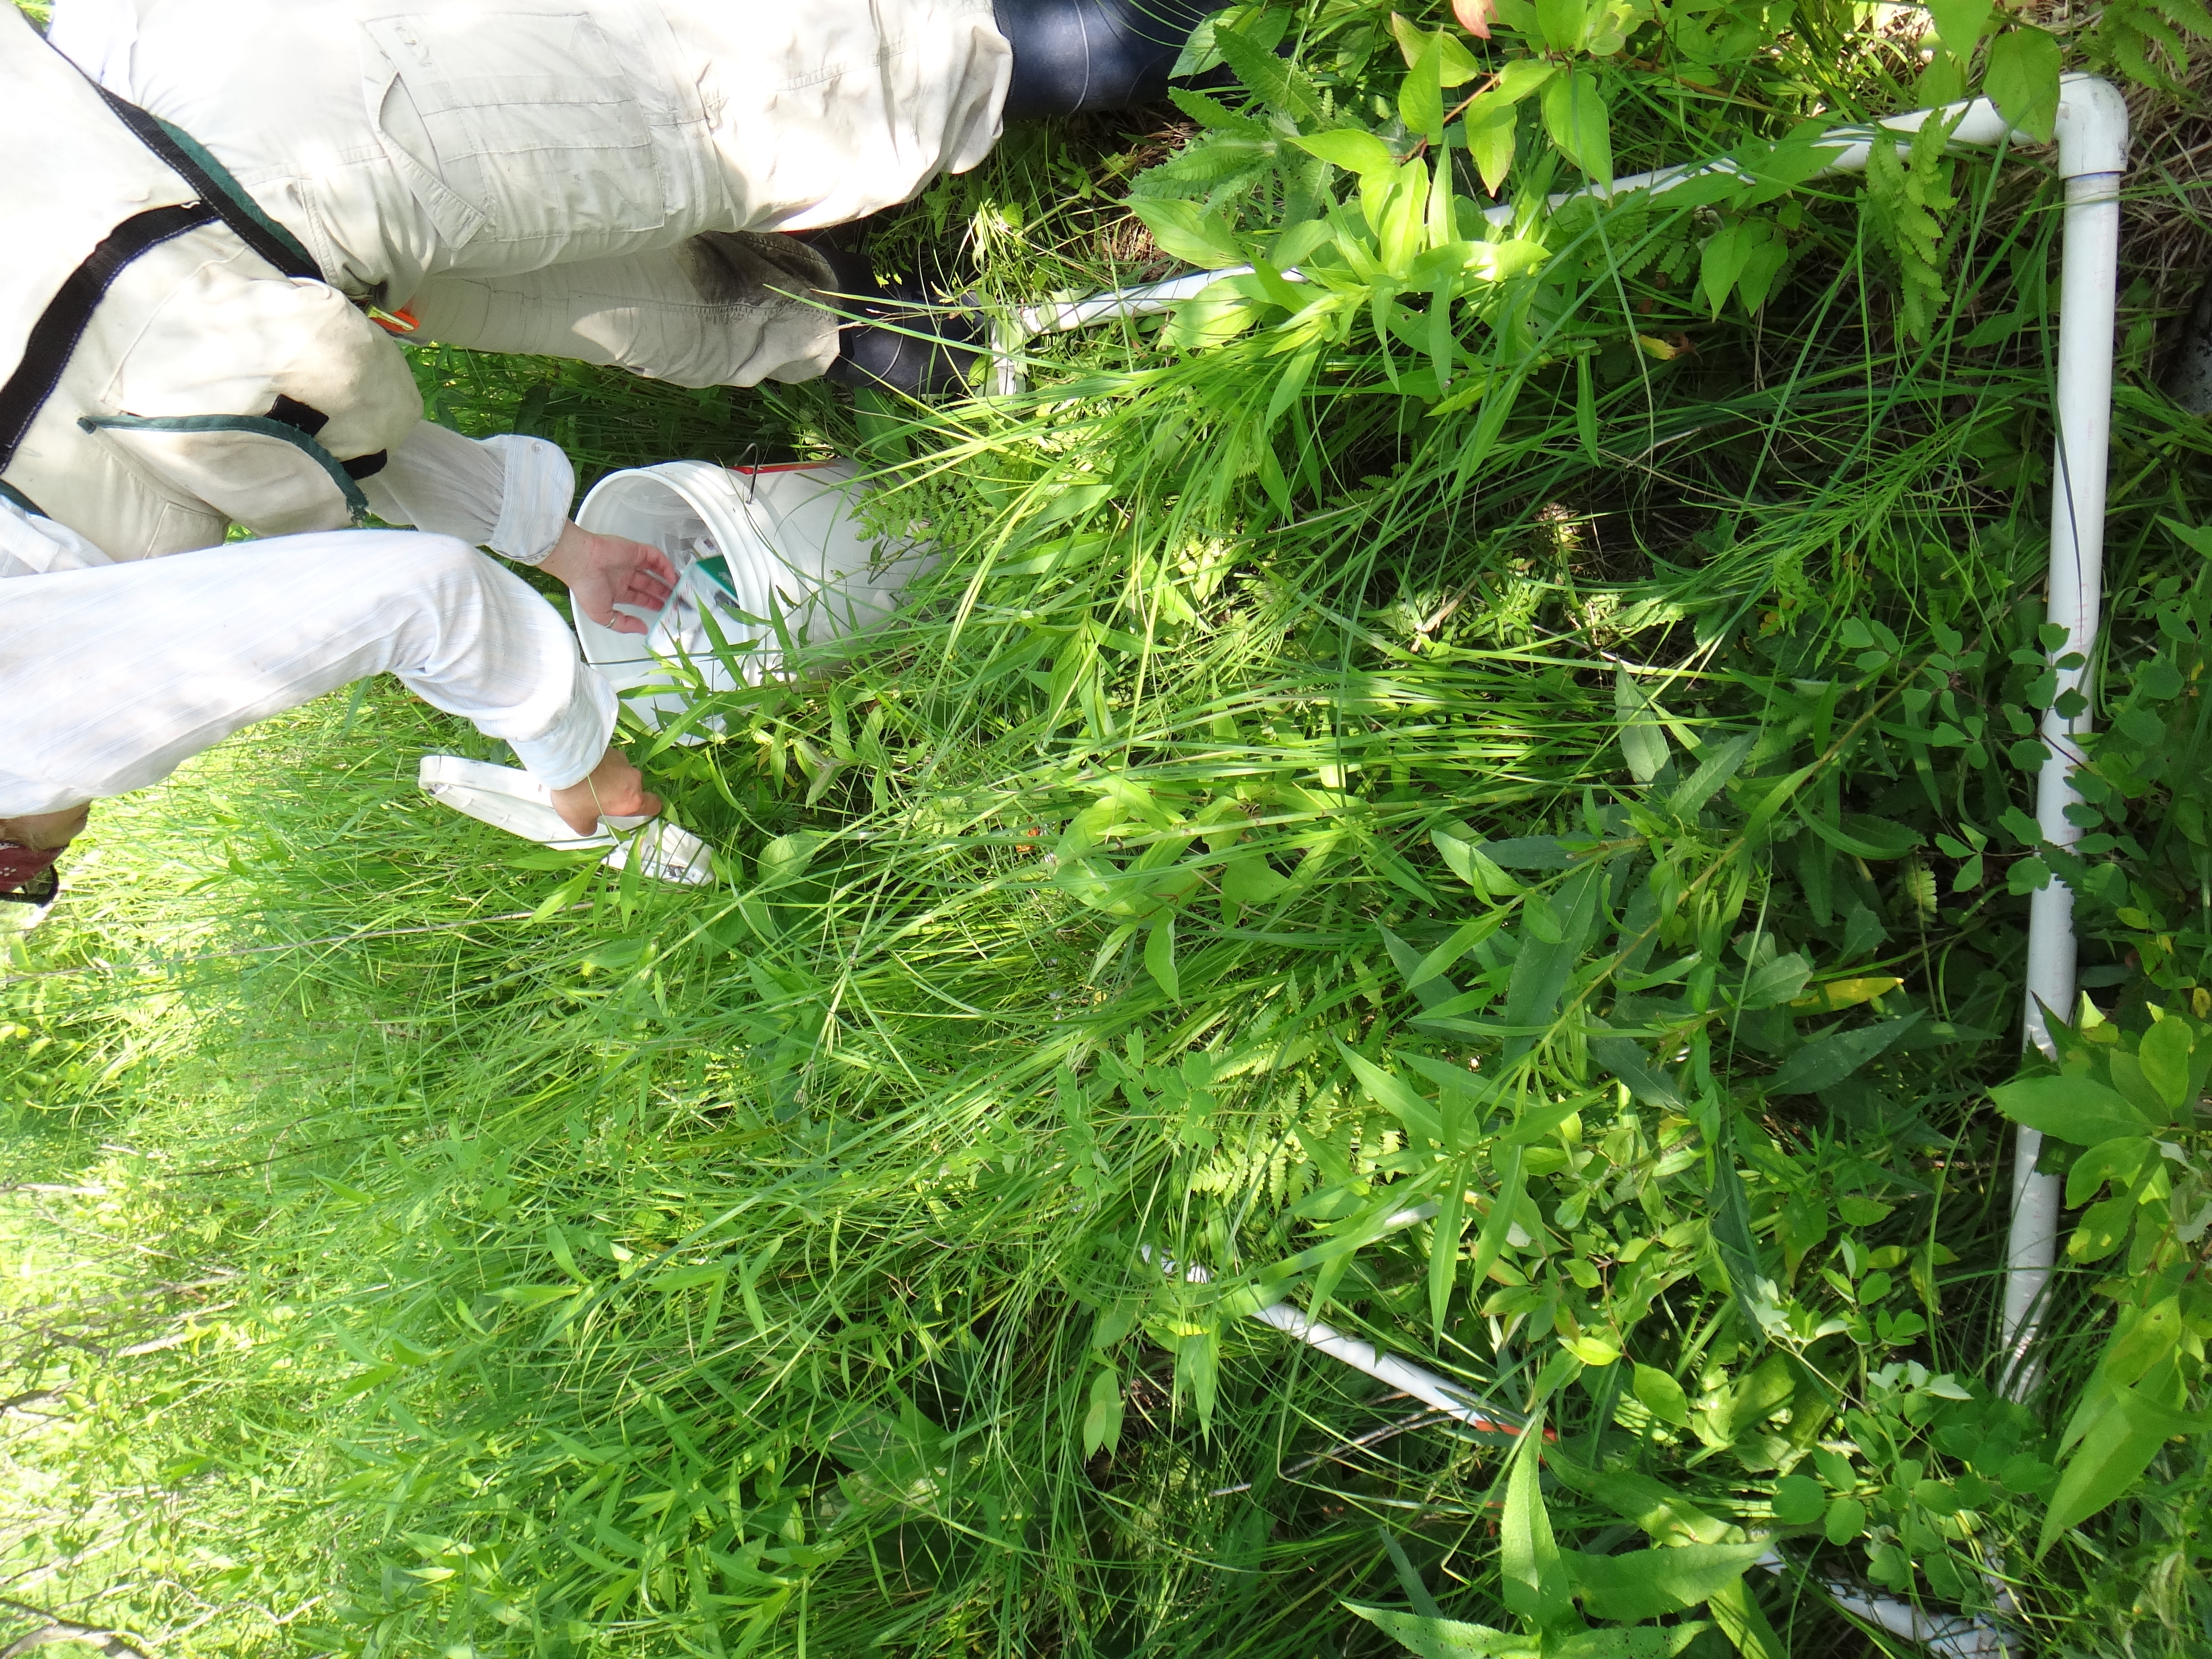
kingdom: Plantae
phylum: Tracheophyta
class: Magnoliopsida
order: Lamiales
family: Lamiaceae
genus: Pycnanthemum
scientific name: Pycnanthemum virginianum
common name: Virginia mountain-mint
